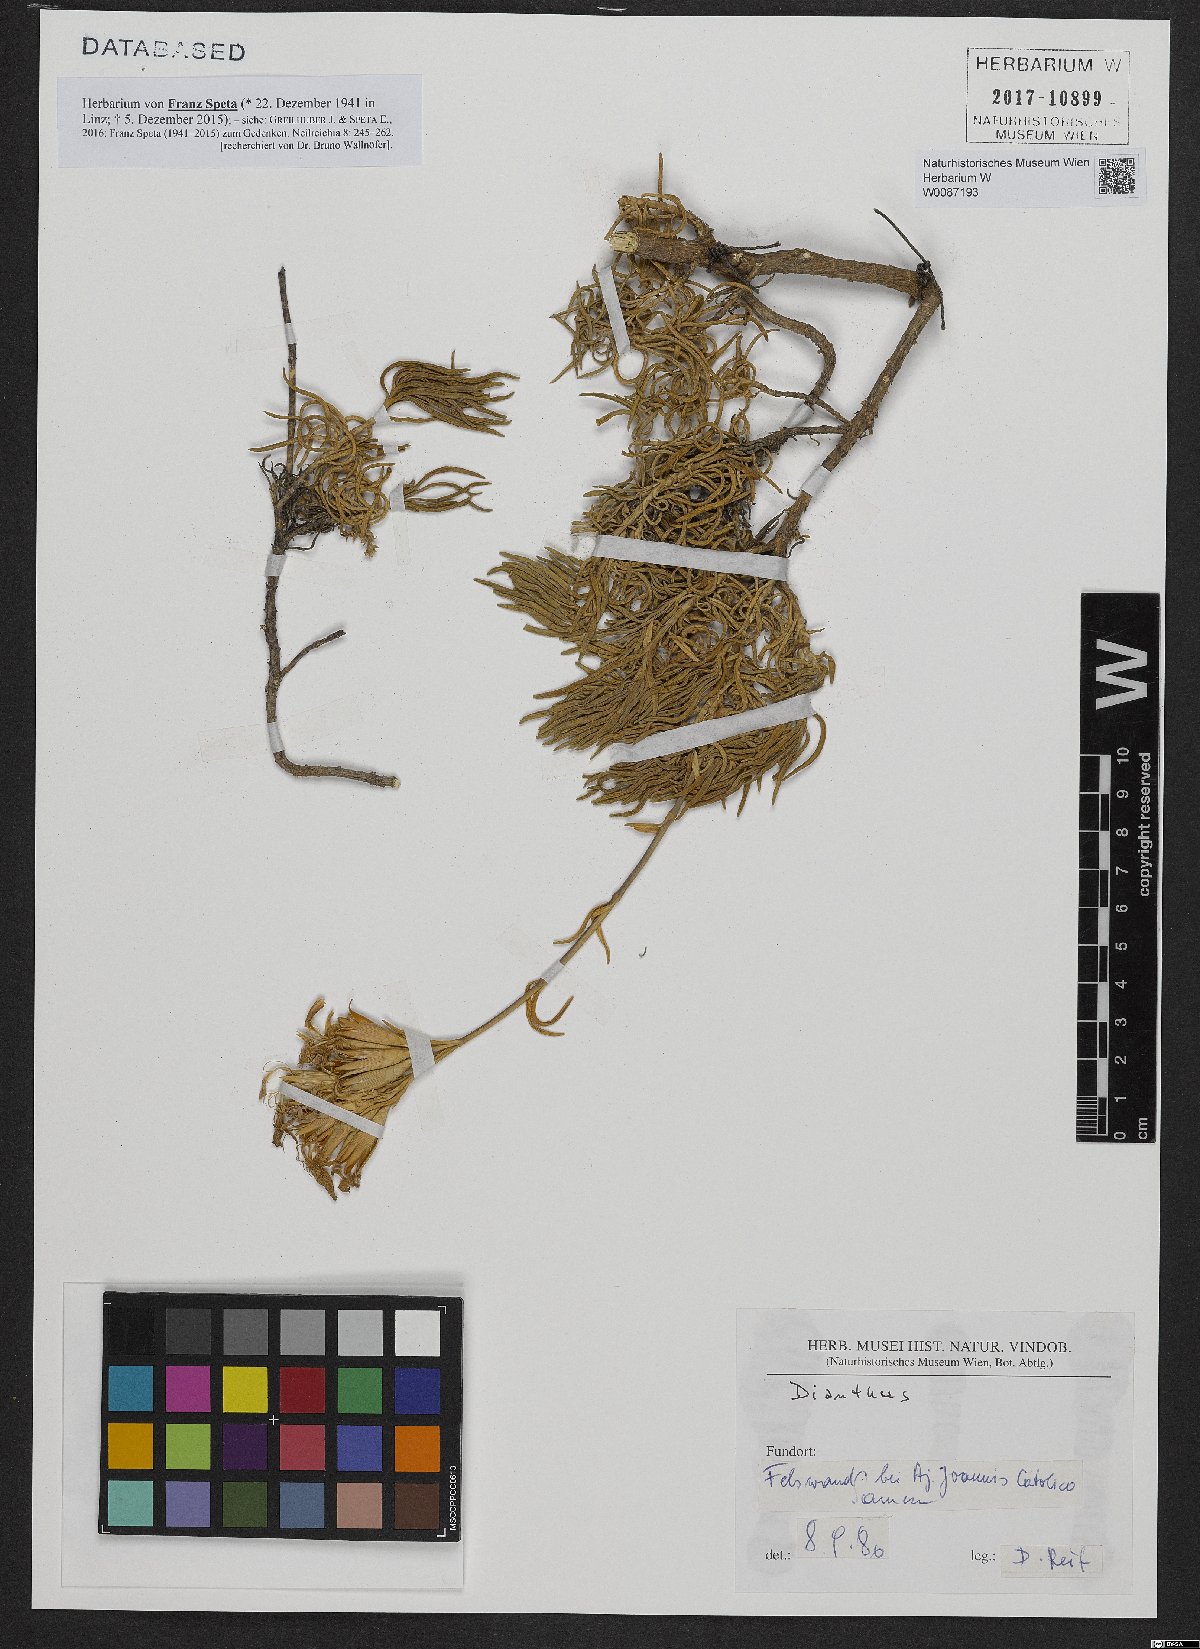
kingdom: Plantae
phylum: Tracheophyta
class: Magnoliopsida
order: Caryophyllales
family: Caryophyllaceae
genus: Dianthus
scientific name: Dianthus
